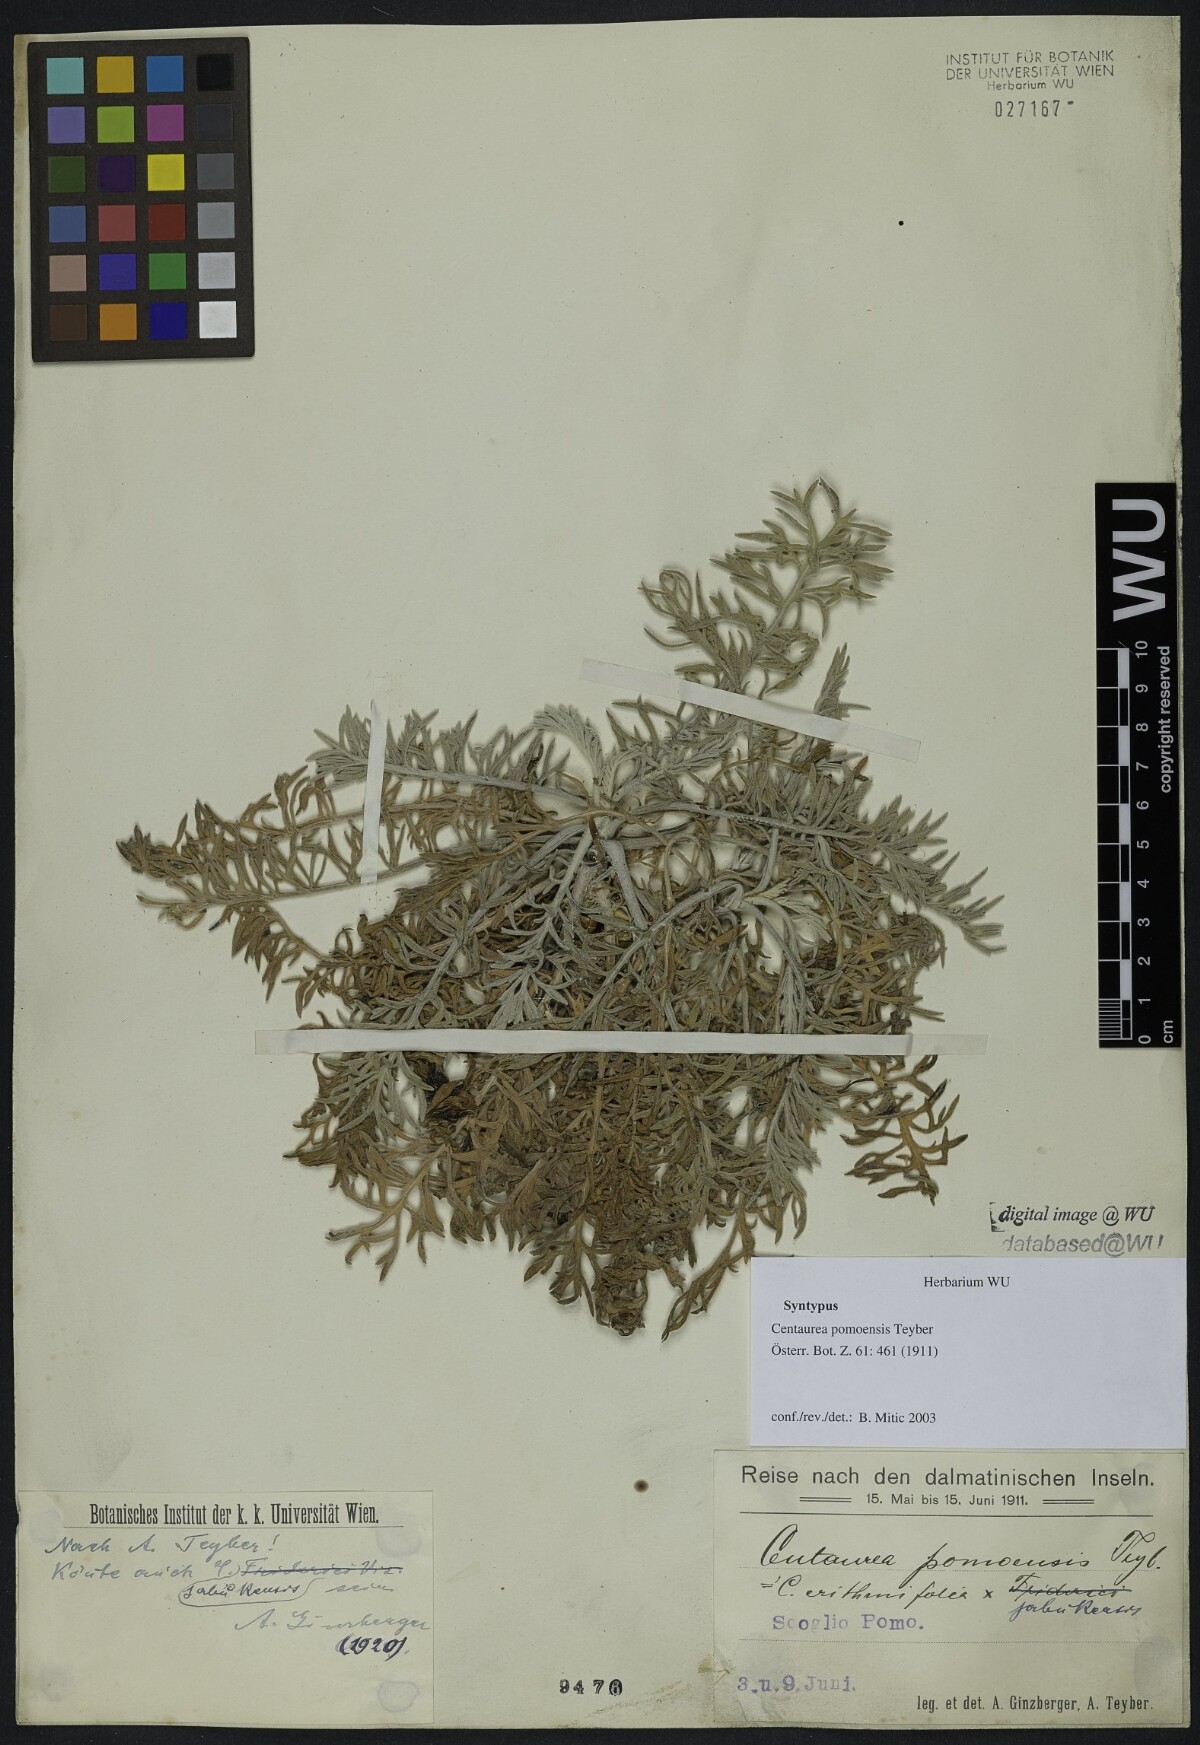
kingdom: Plantae
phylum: Tracheophyta
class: Magnoliopsida
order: Asterales
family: Asteraceae
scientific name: Asteraceae
